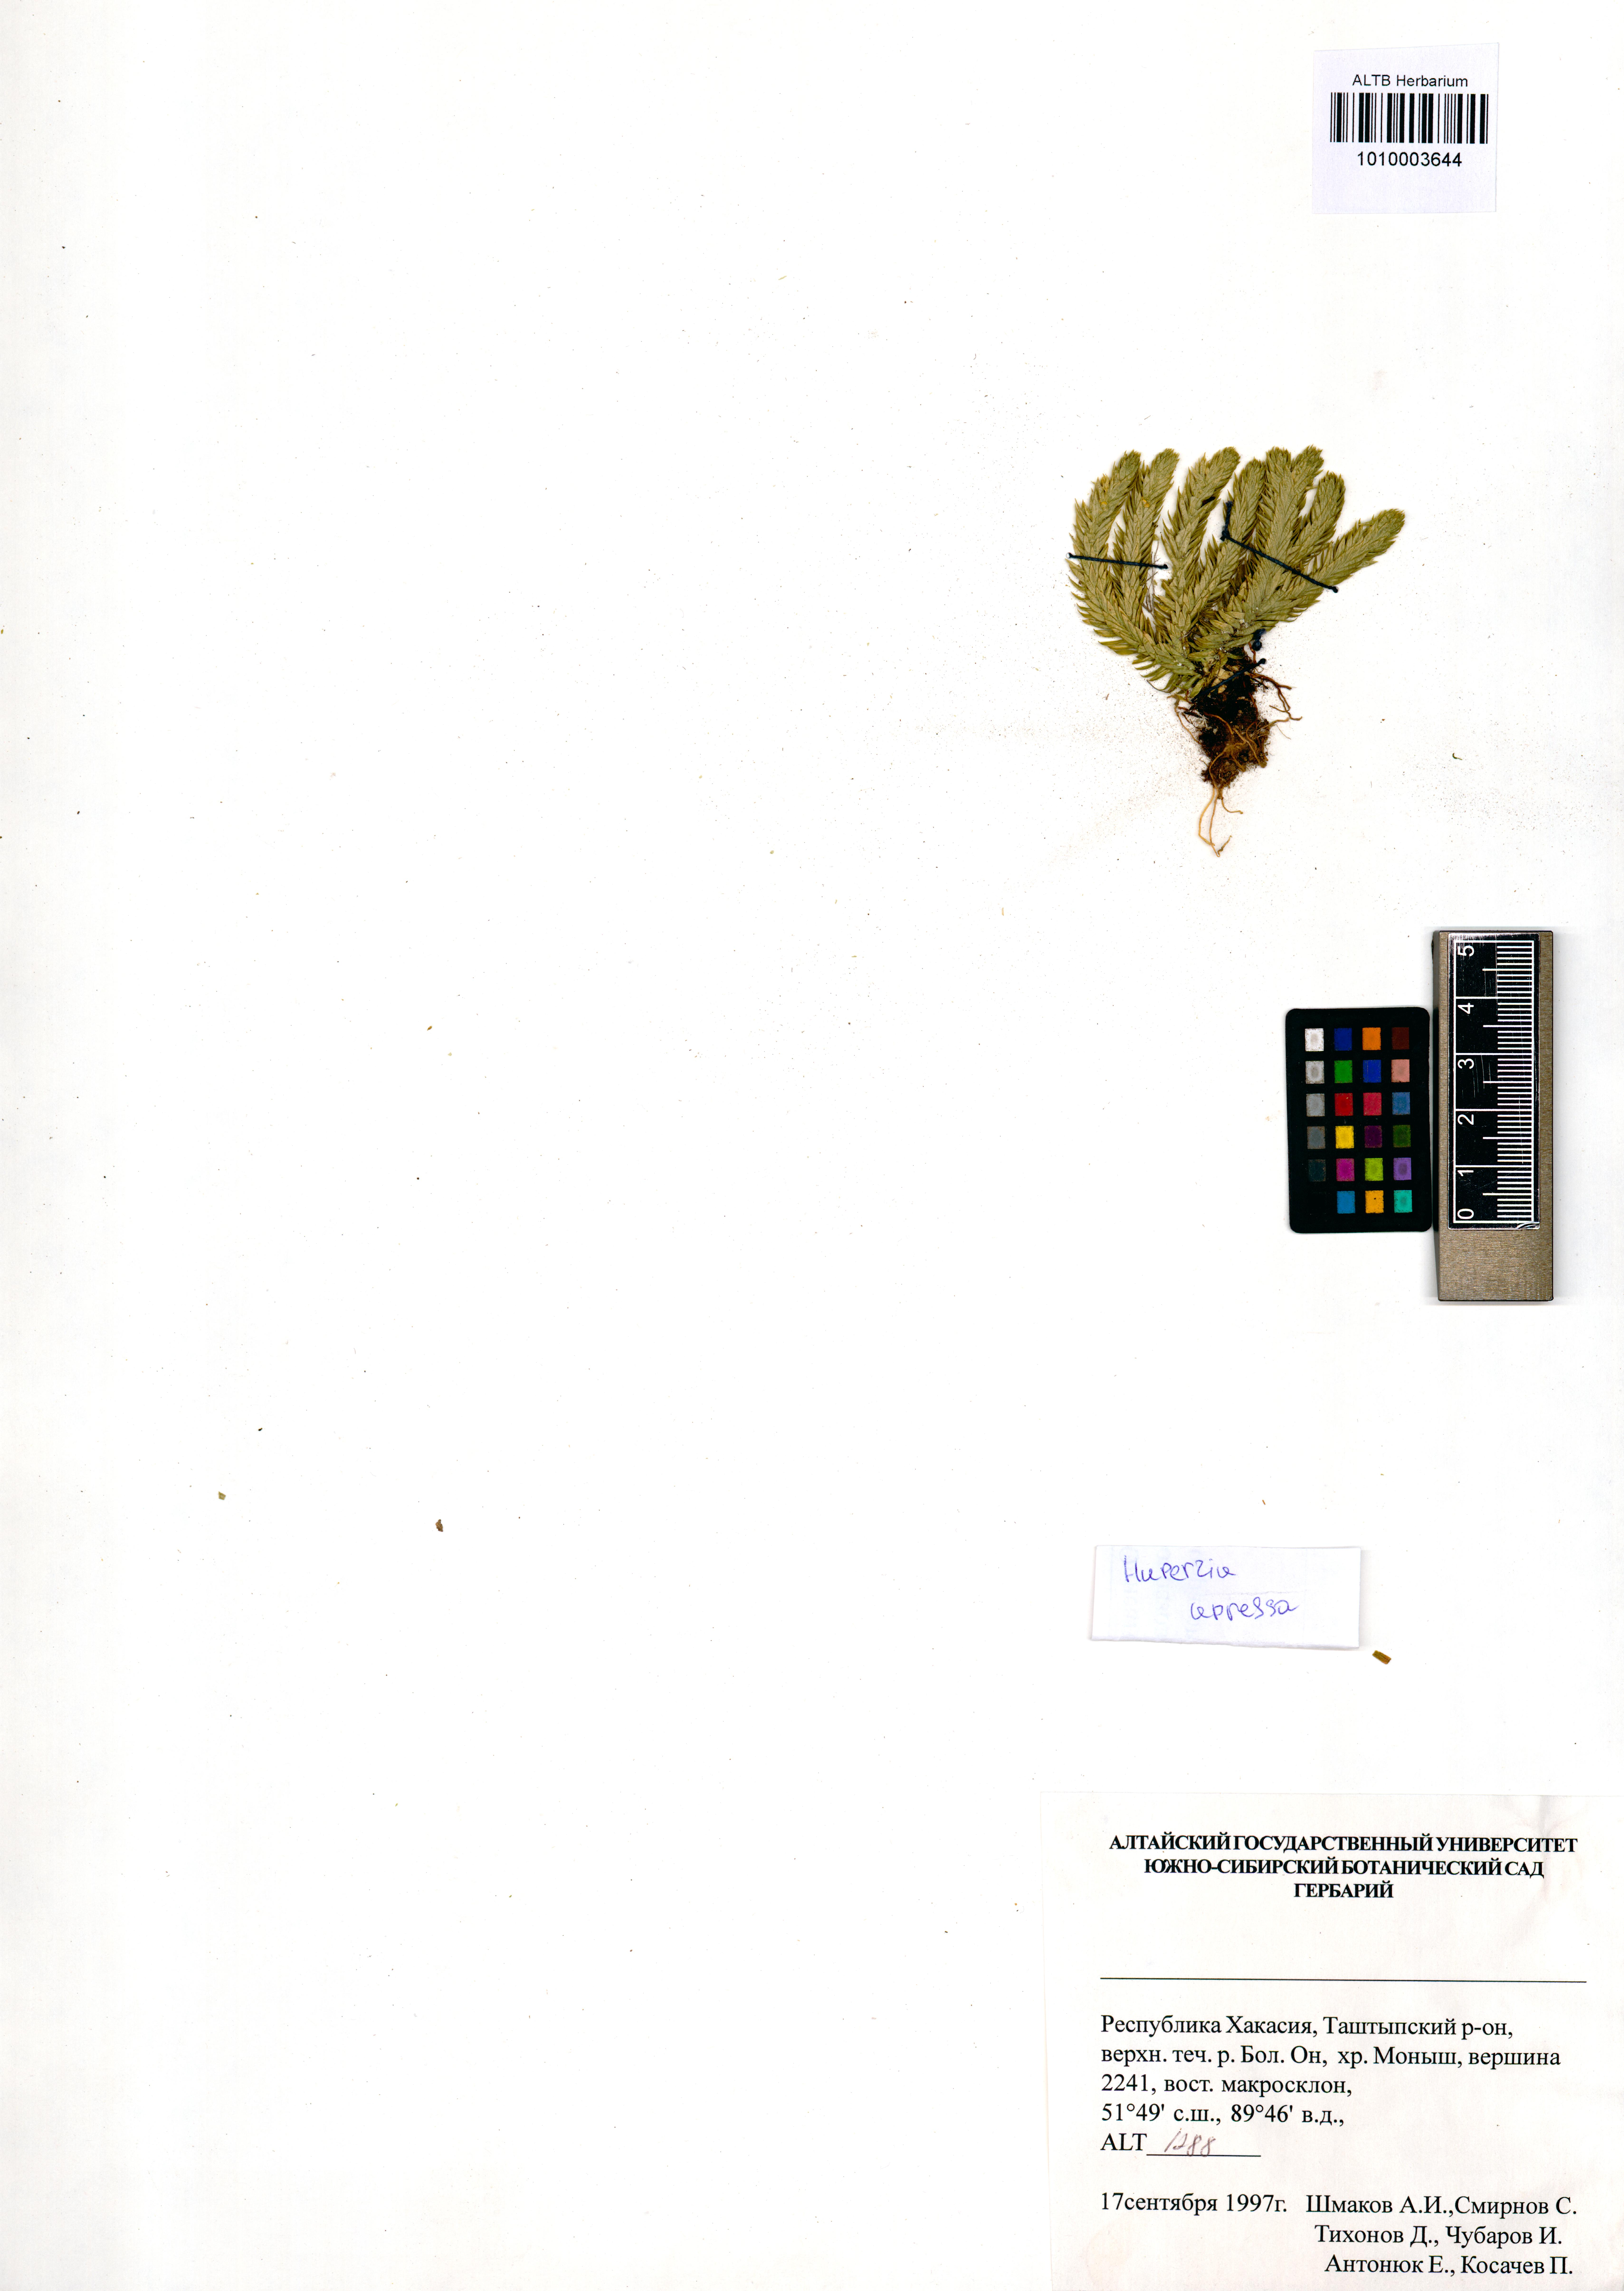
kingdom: Plantae
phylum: Tracheophyta
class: Lycopodiopsida
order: Lycopodiales
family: Lycopodiaceae
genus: Huperzia
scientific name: Huperzia selago
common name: Northern firmoss
